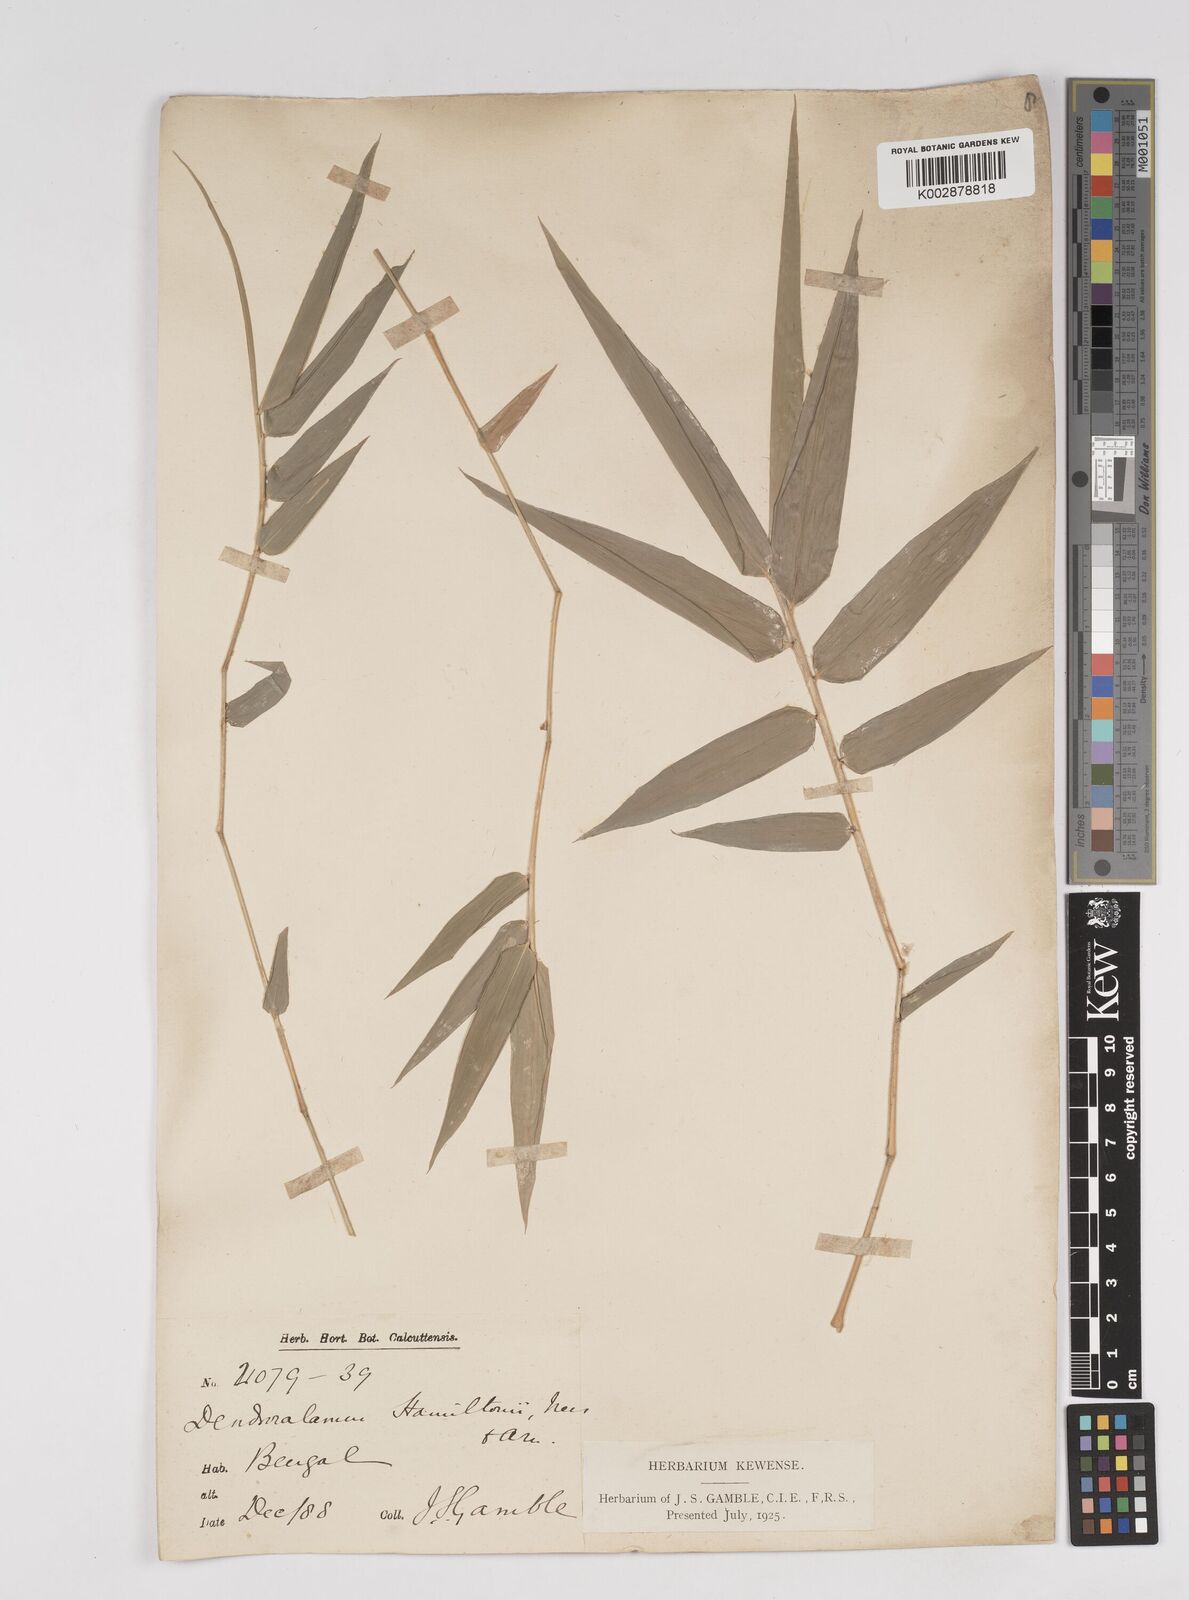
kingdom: Plantae
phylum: Tracheophyta
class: Liliopsida
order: Poales
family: Poaceae
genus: Dendrocalamus
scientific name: Dendrocalamus hamiltonii
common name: Tama bamboo
